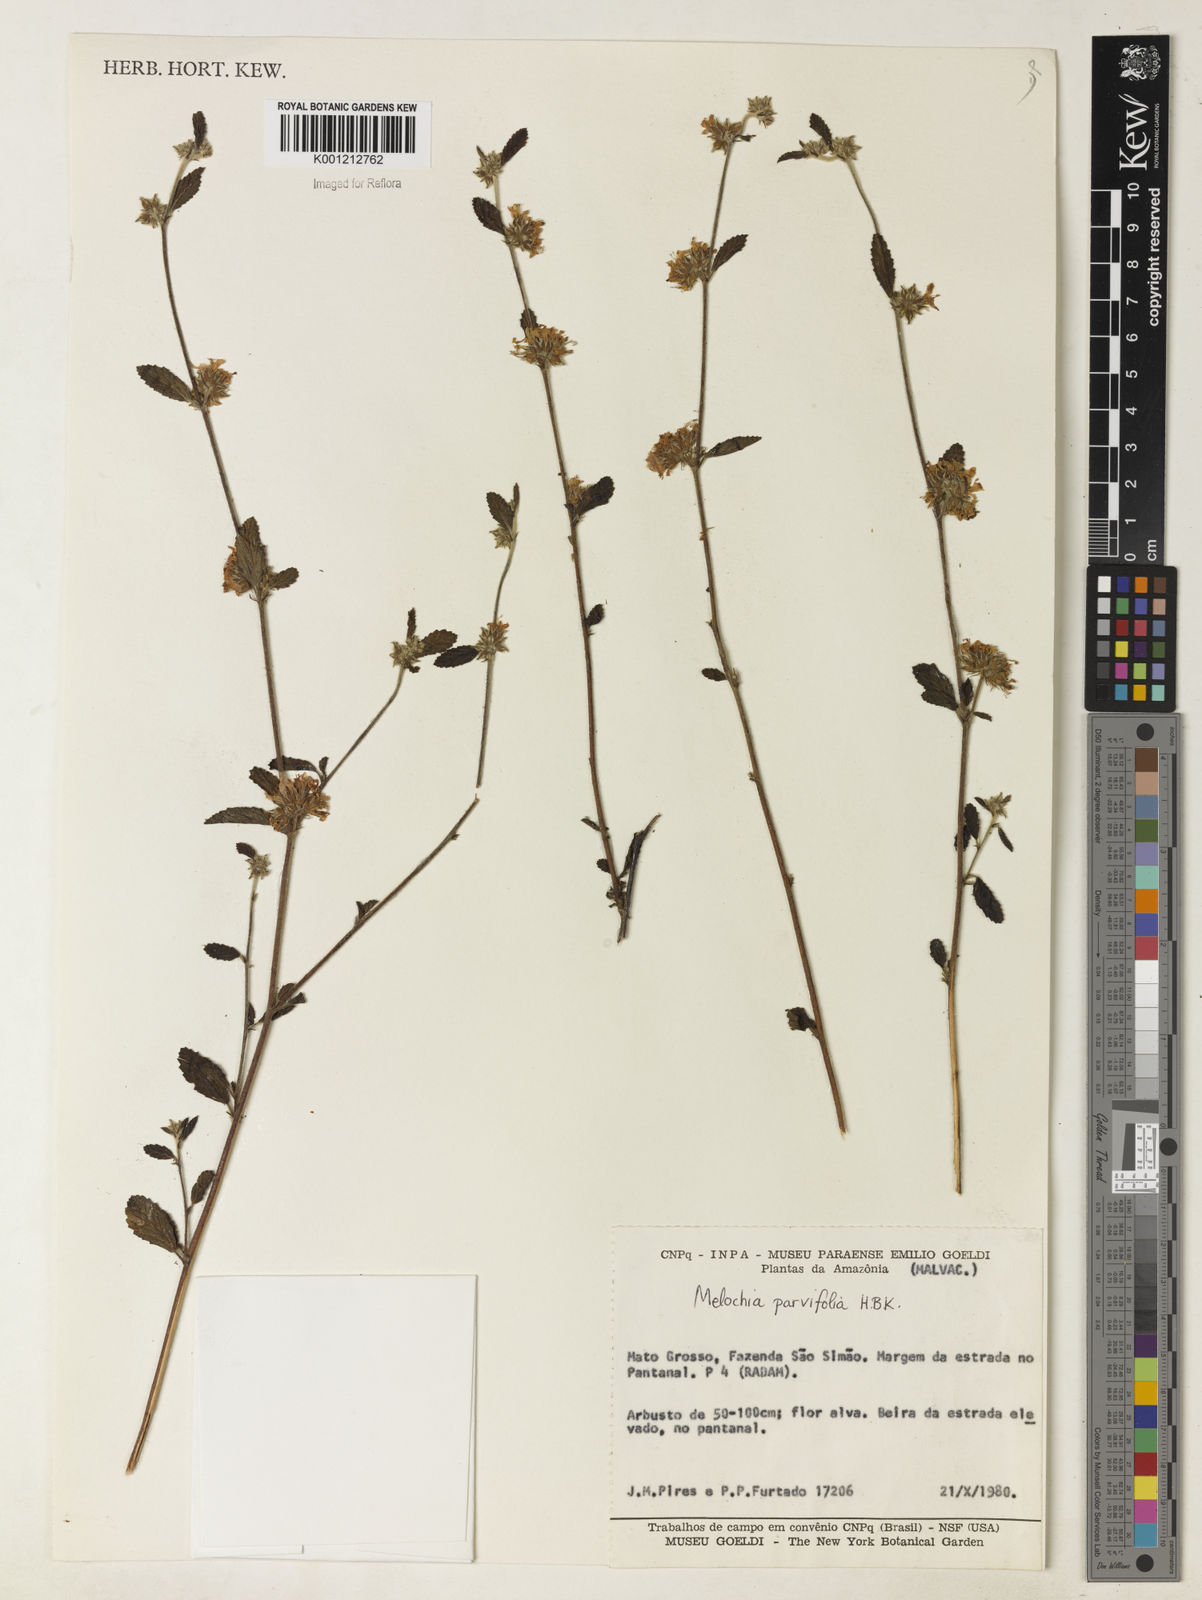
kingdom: Plantae
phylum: Tracheophyta
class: Magnoliopsida
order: Malvales
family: Malvaceae
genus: Melochia
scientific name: Melochia parvifolia
